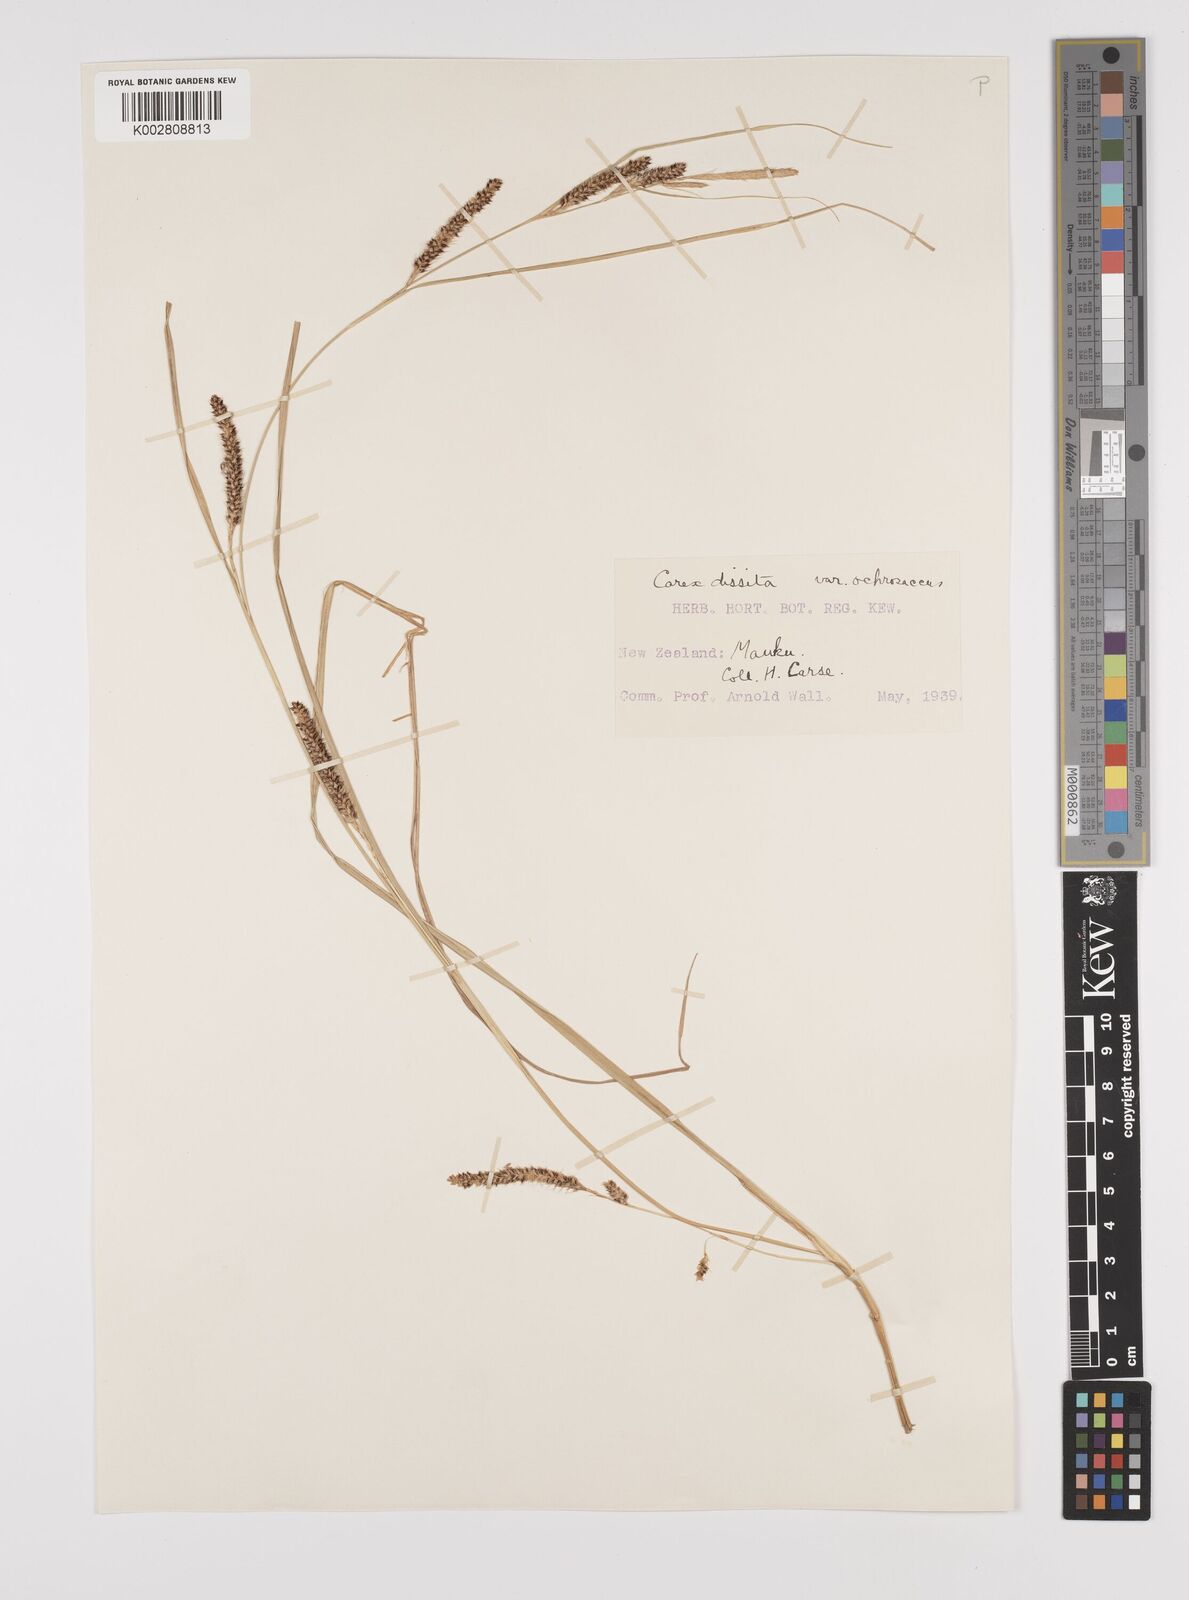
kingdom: Plantae
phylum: Tracheophyta
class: Liliopsida
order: Poales
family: Cyperaceae
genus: Carex
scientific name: Carex ochrosaccus
